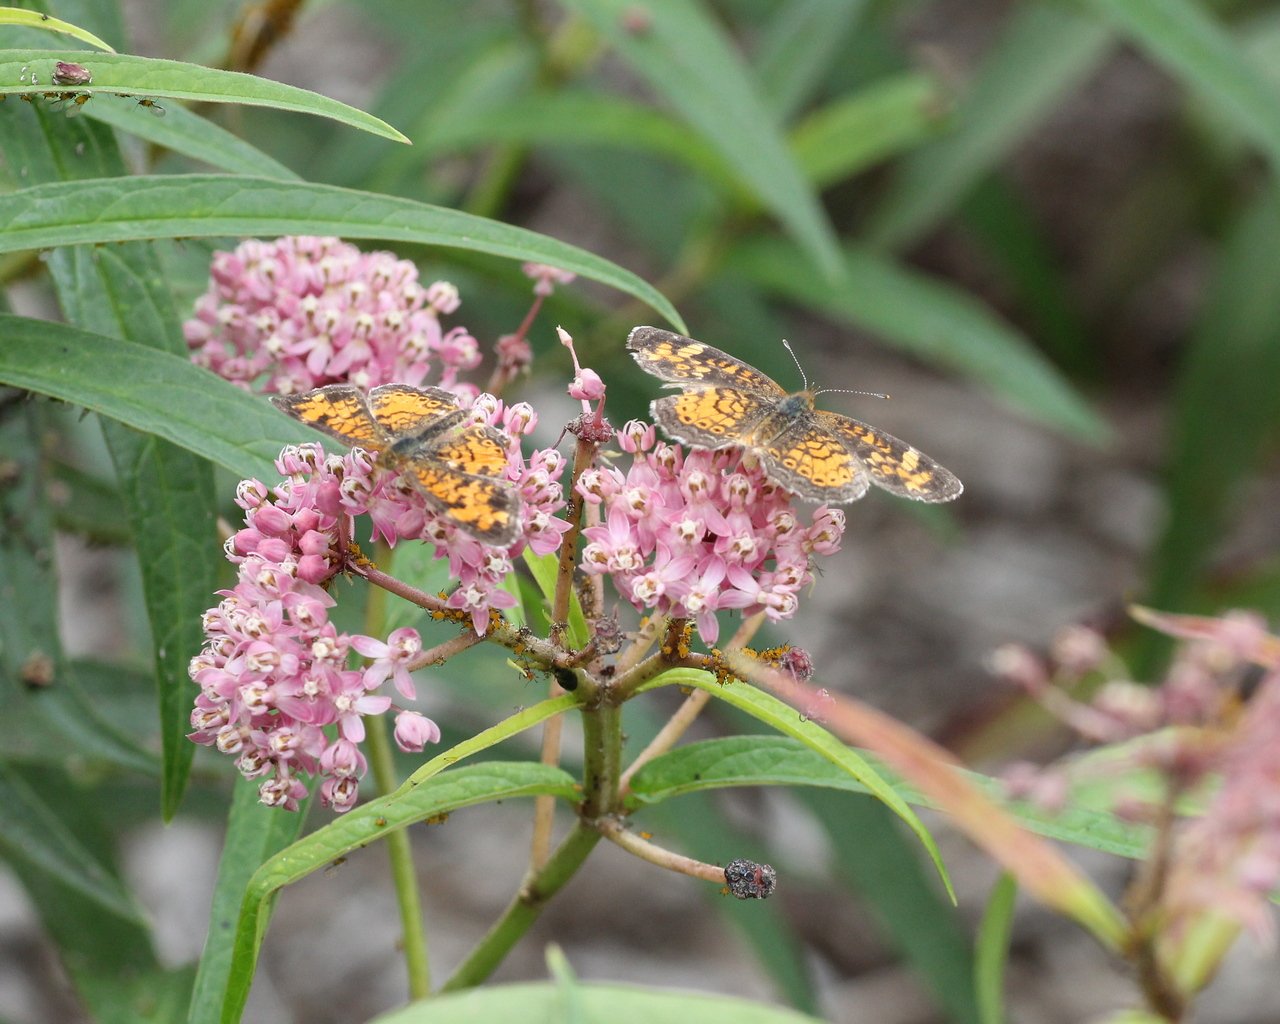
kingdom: Animalia
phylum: Arthropoda
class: Insecta
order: Lepidoptera
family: Nymphalidae
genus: Phyciodes
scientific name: Phyciodes tharos
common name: Northern Crescent
